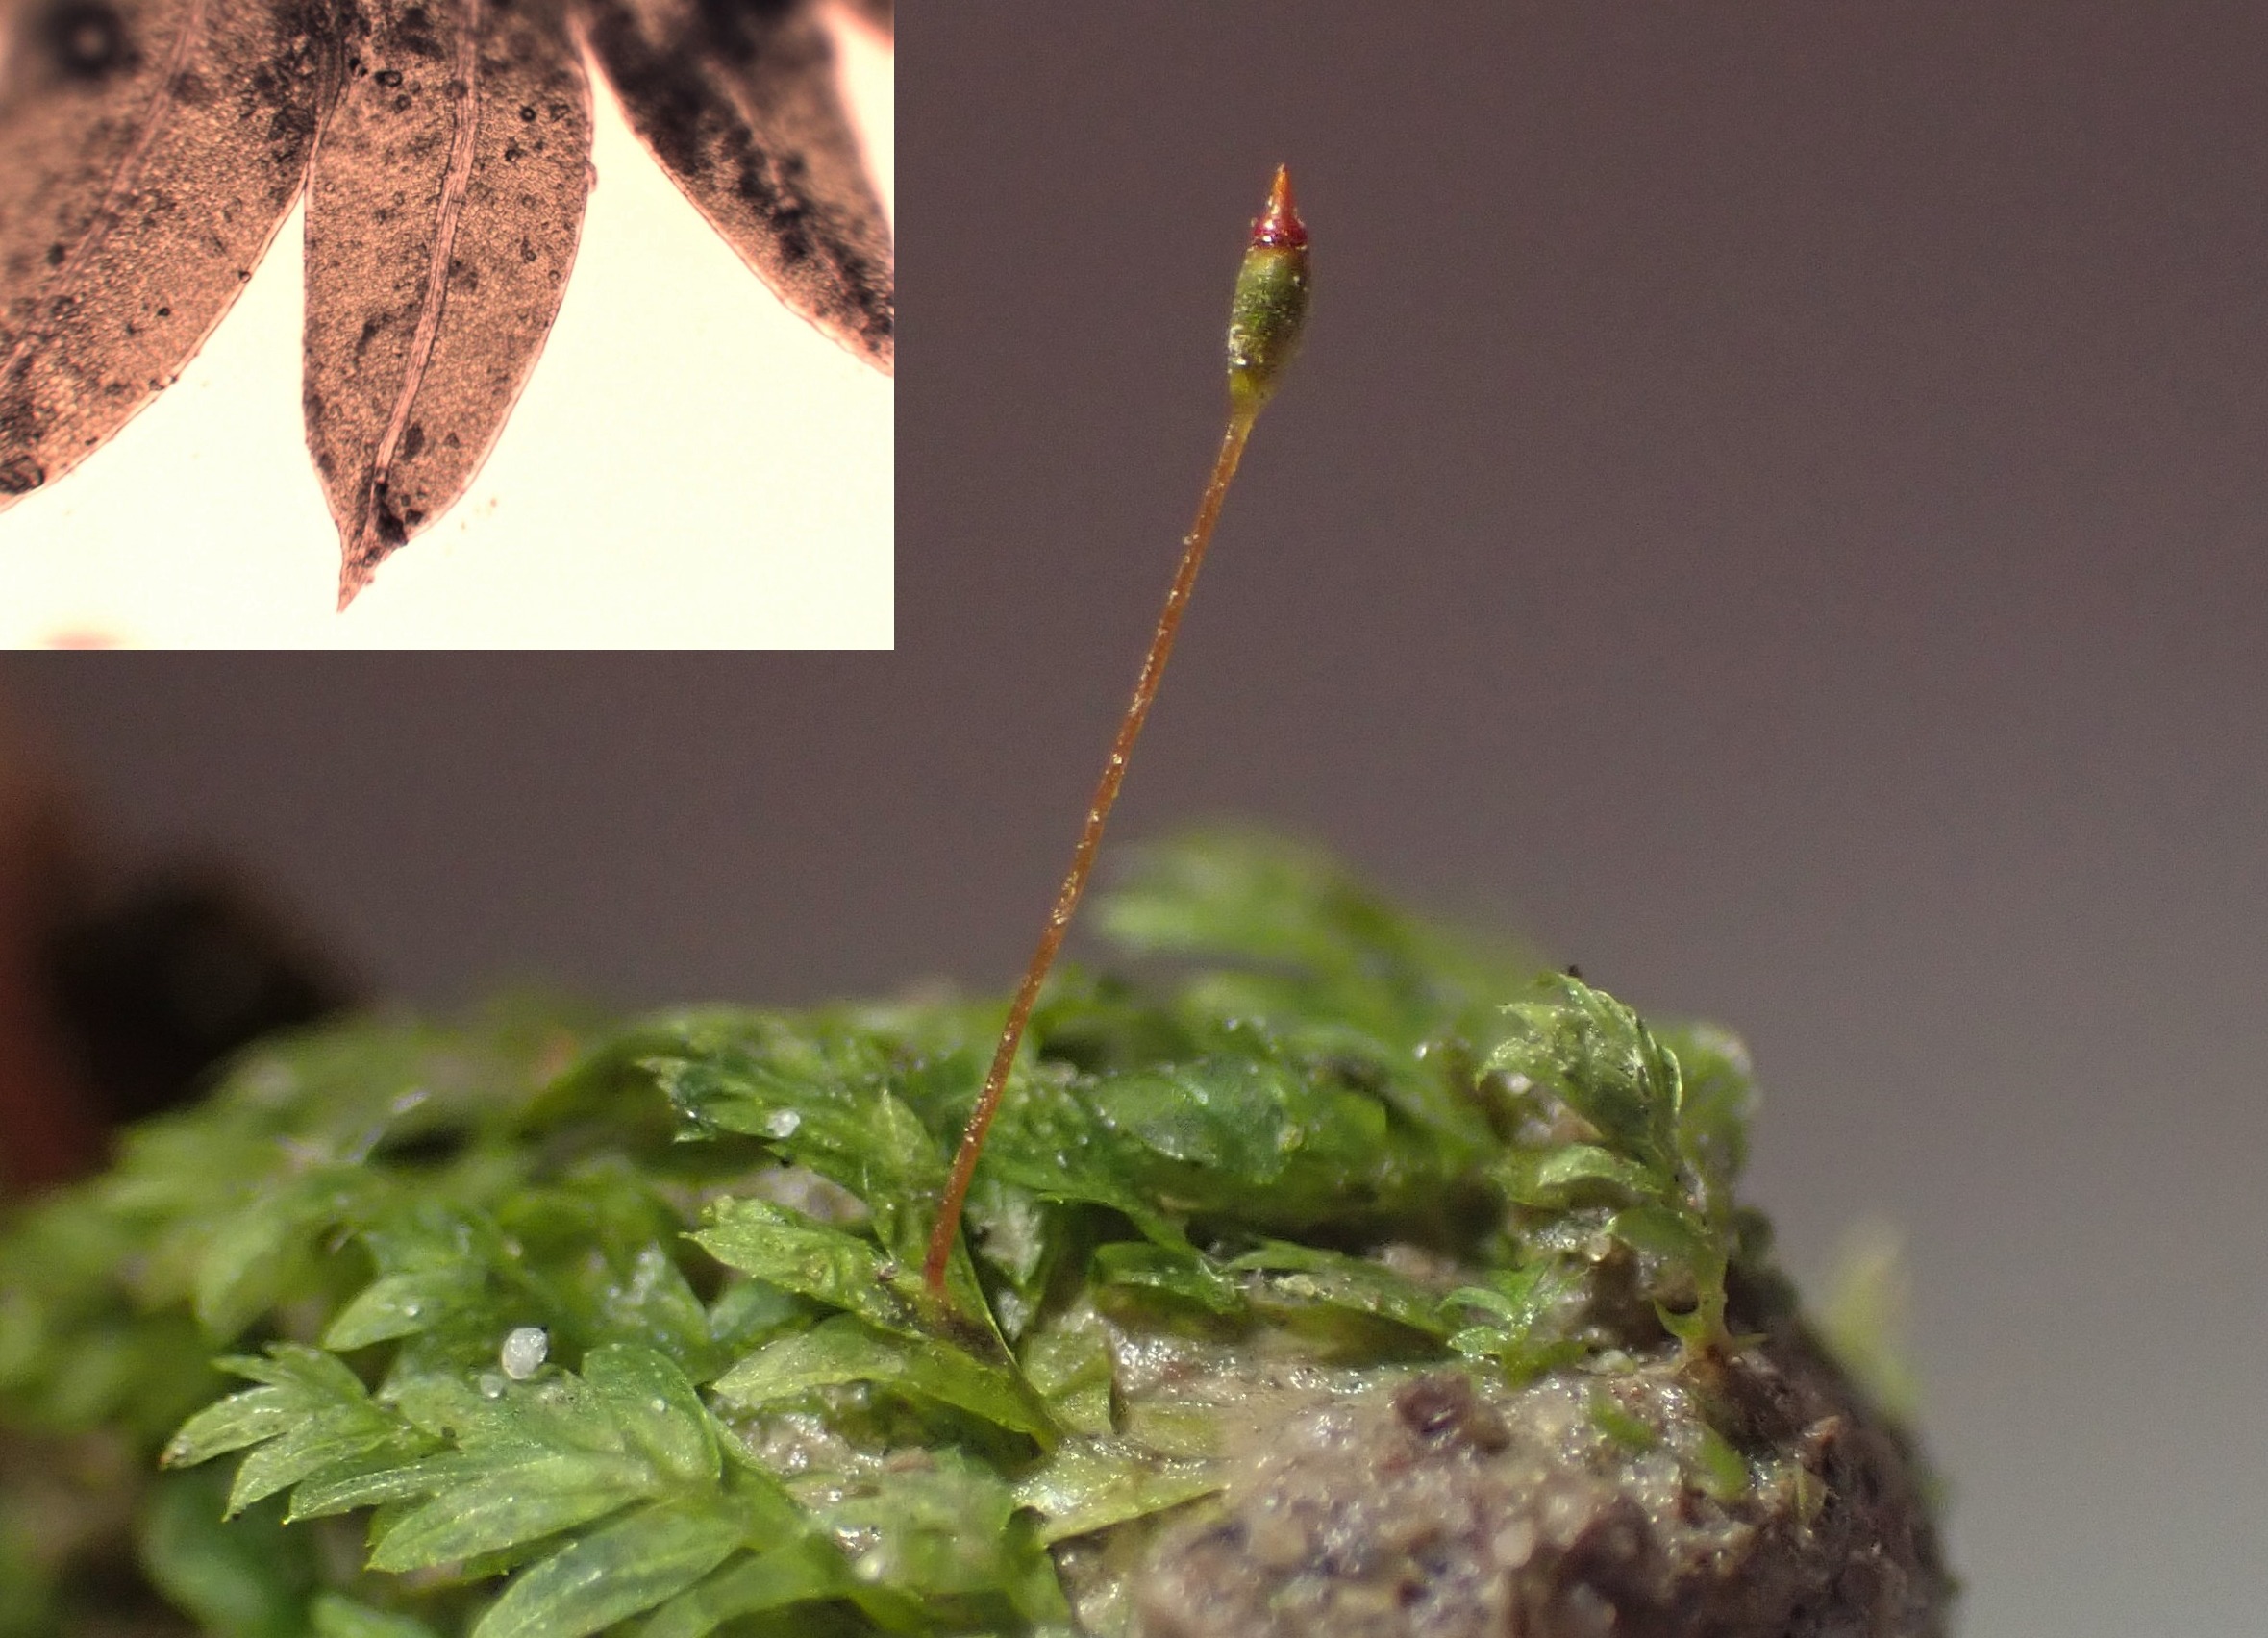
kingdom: Plantae
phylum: Bryophyta
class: Bryopsida
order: Dicranales
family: Fissidentaceae
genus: Fissidens
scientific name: Fissidens bryoides
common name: Top-rademos
